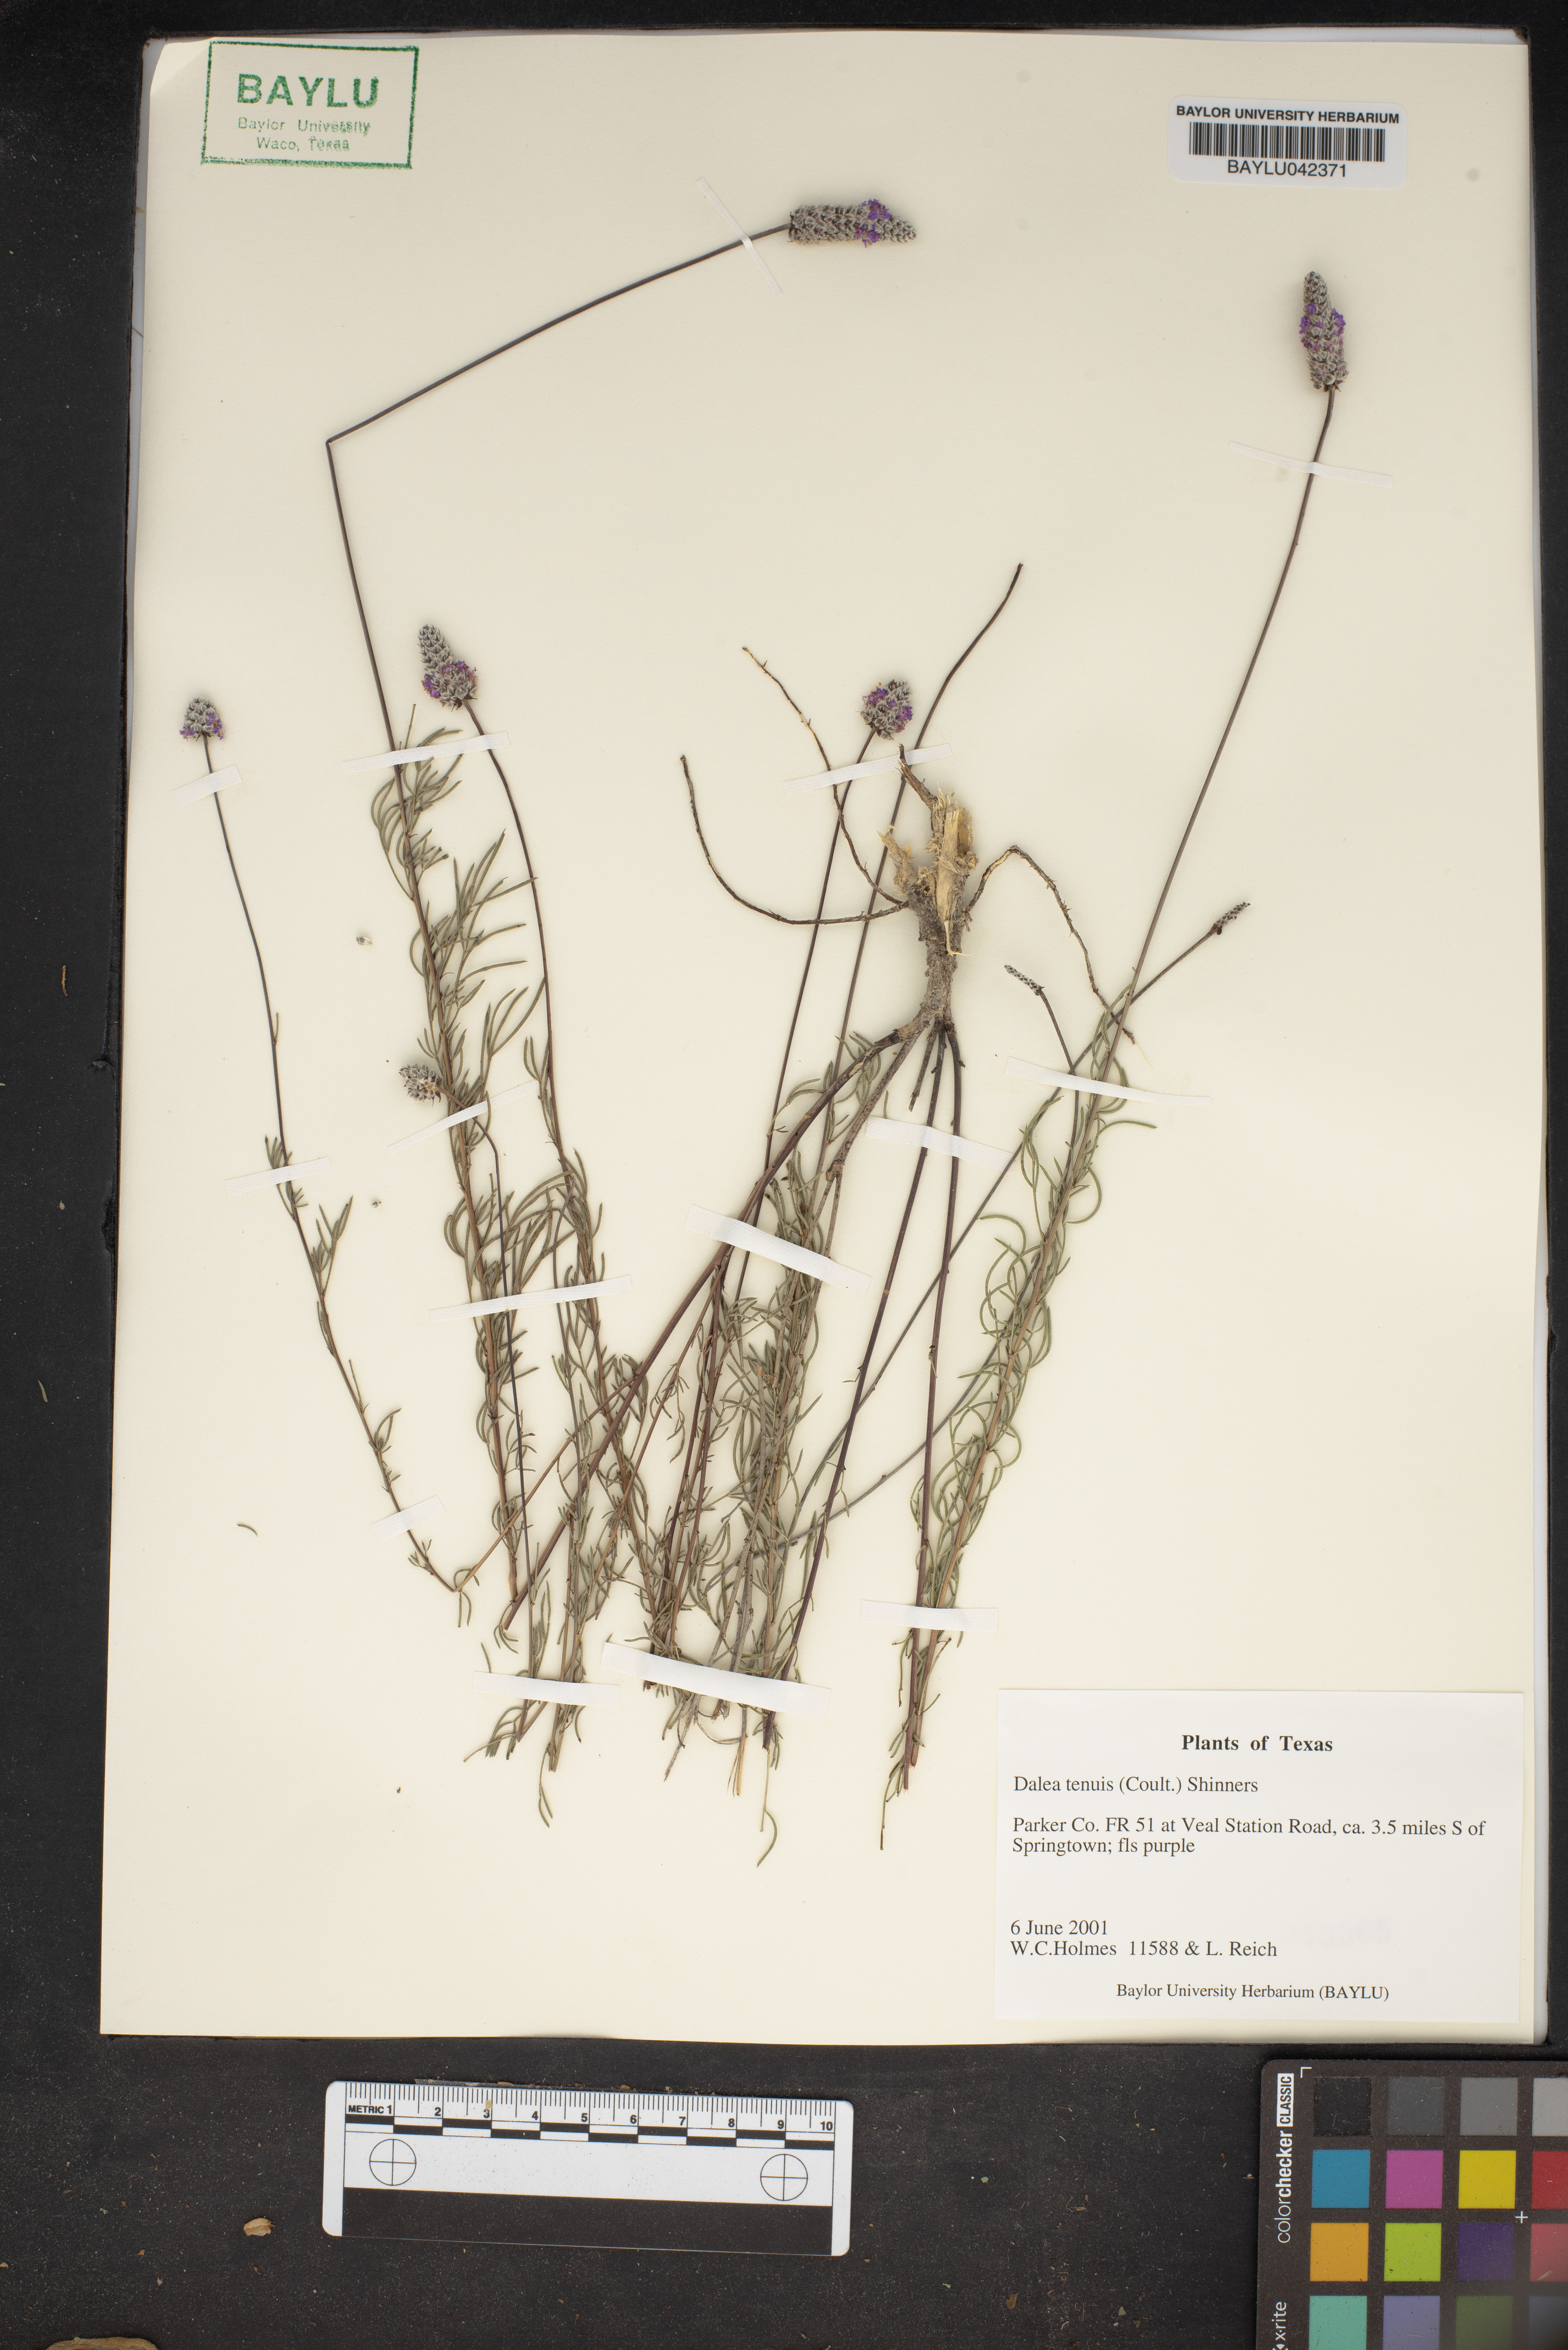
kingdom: Plantae
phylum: Tracheophyta
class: Magnoliopsida
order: Fabales
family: Fabaceae
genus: Dalea
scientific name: Dalea tenuis
